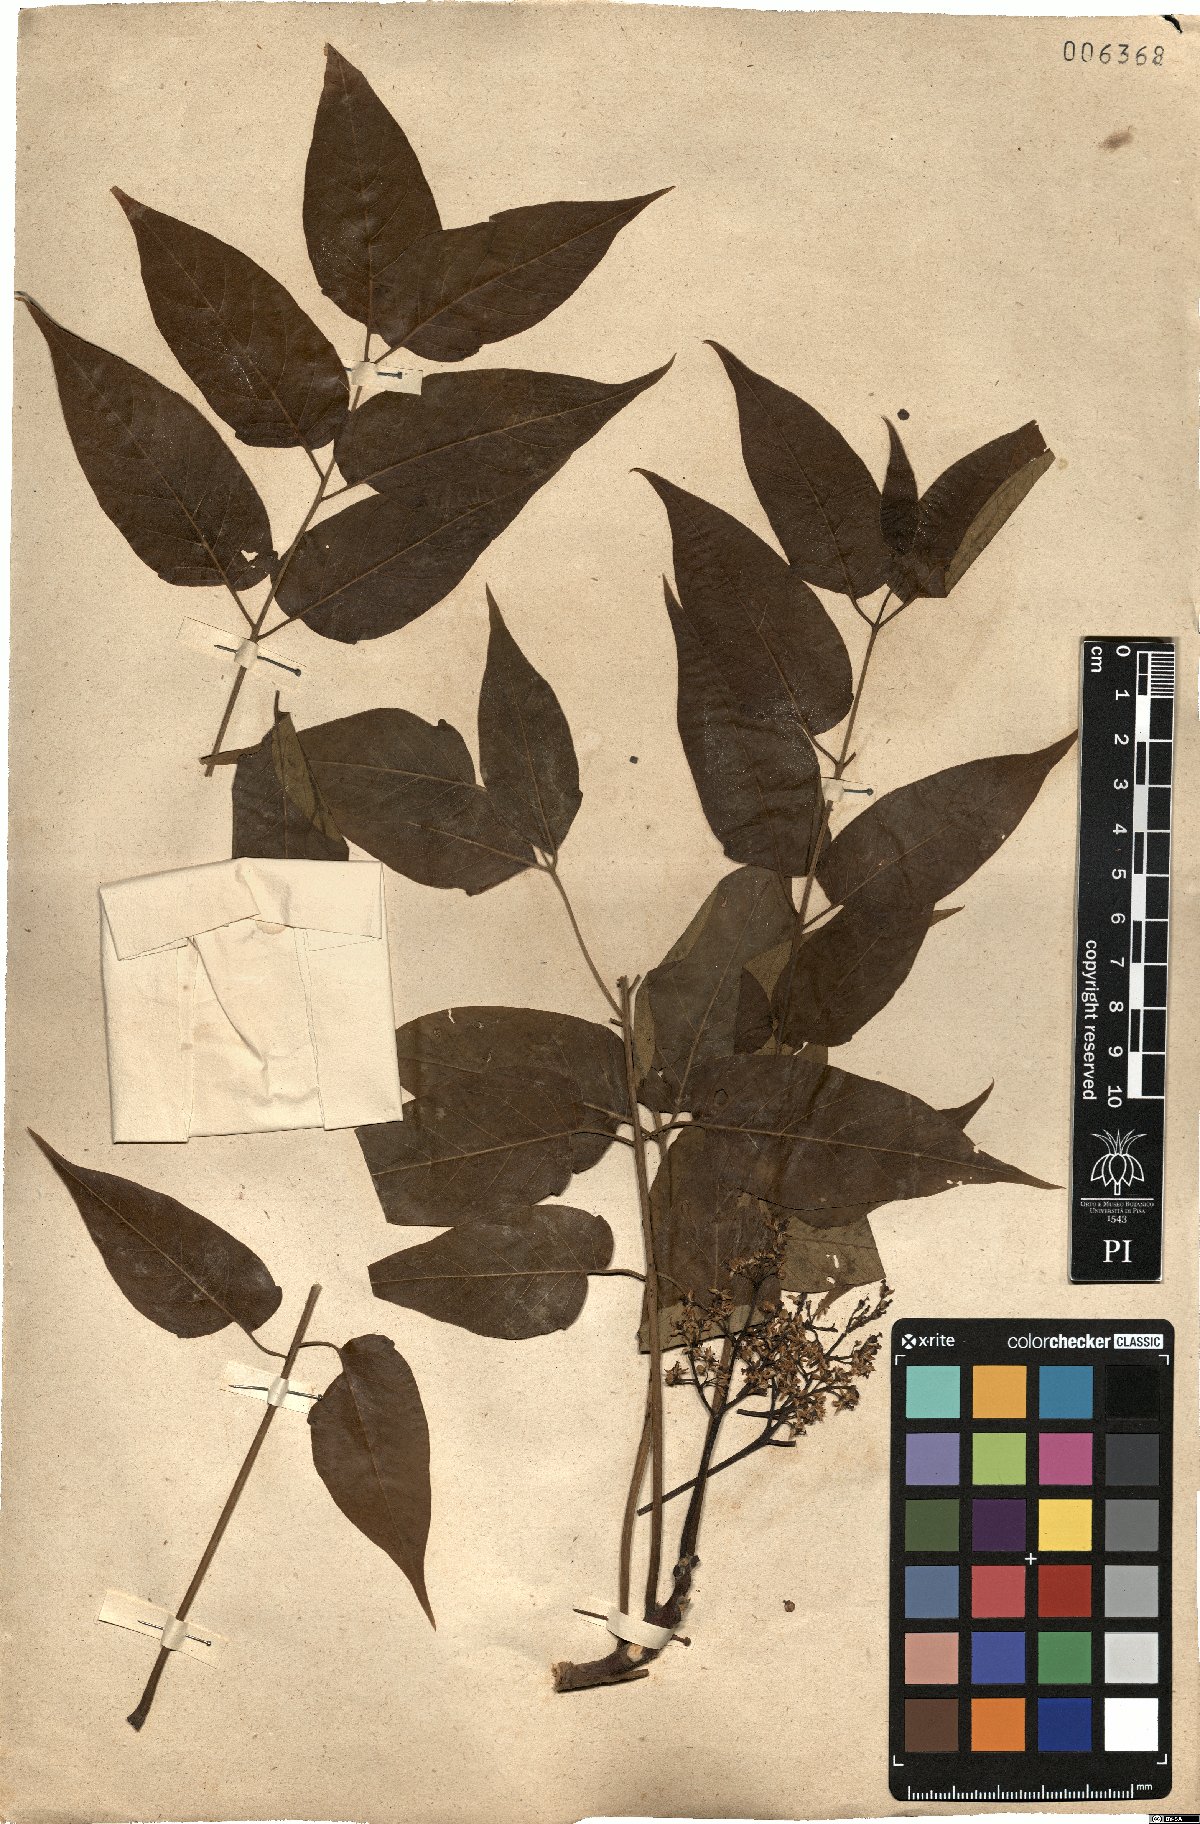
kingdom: Plantae
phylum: Tracheophyta
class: Magnoliopsida
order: Sapindales
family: Simaroubaceae
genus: Ailanthus
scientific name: Ailanthus altissima
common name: Tree-of-heaven
